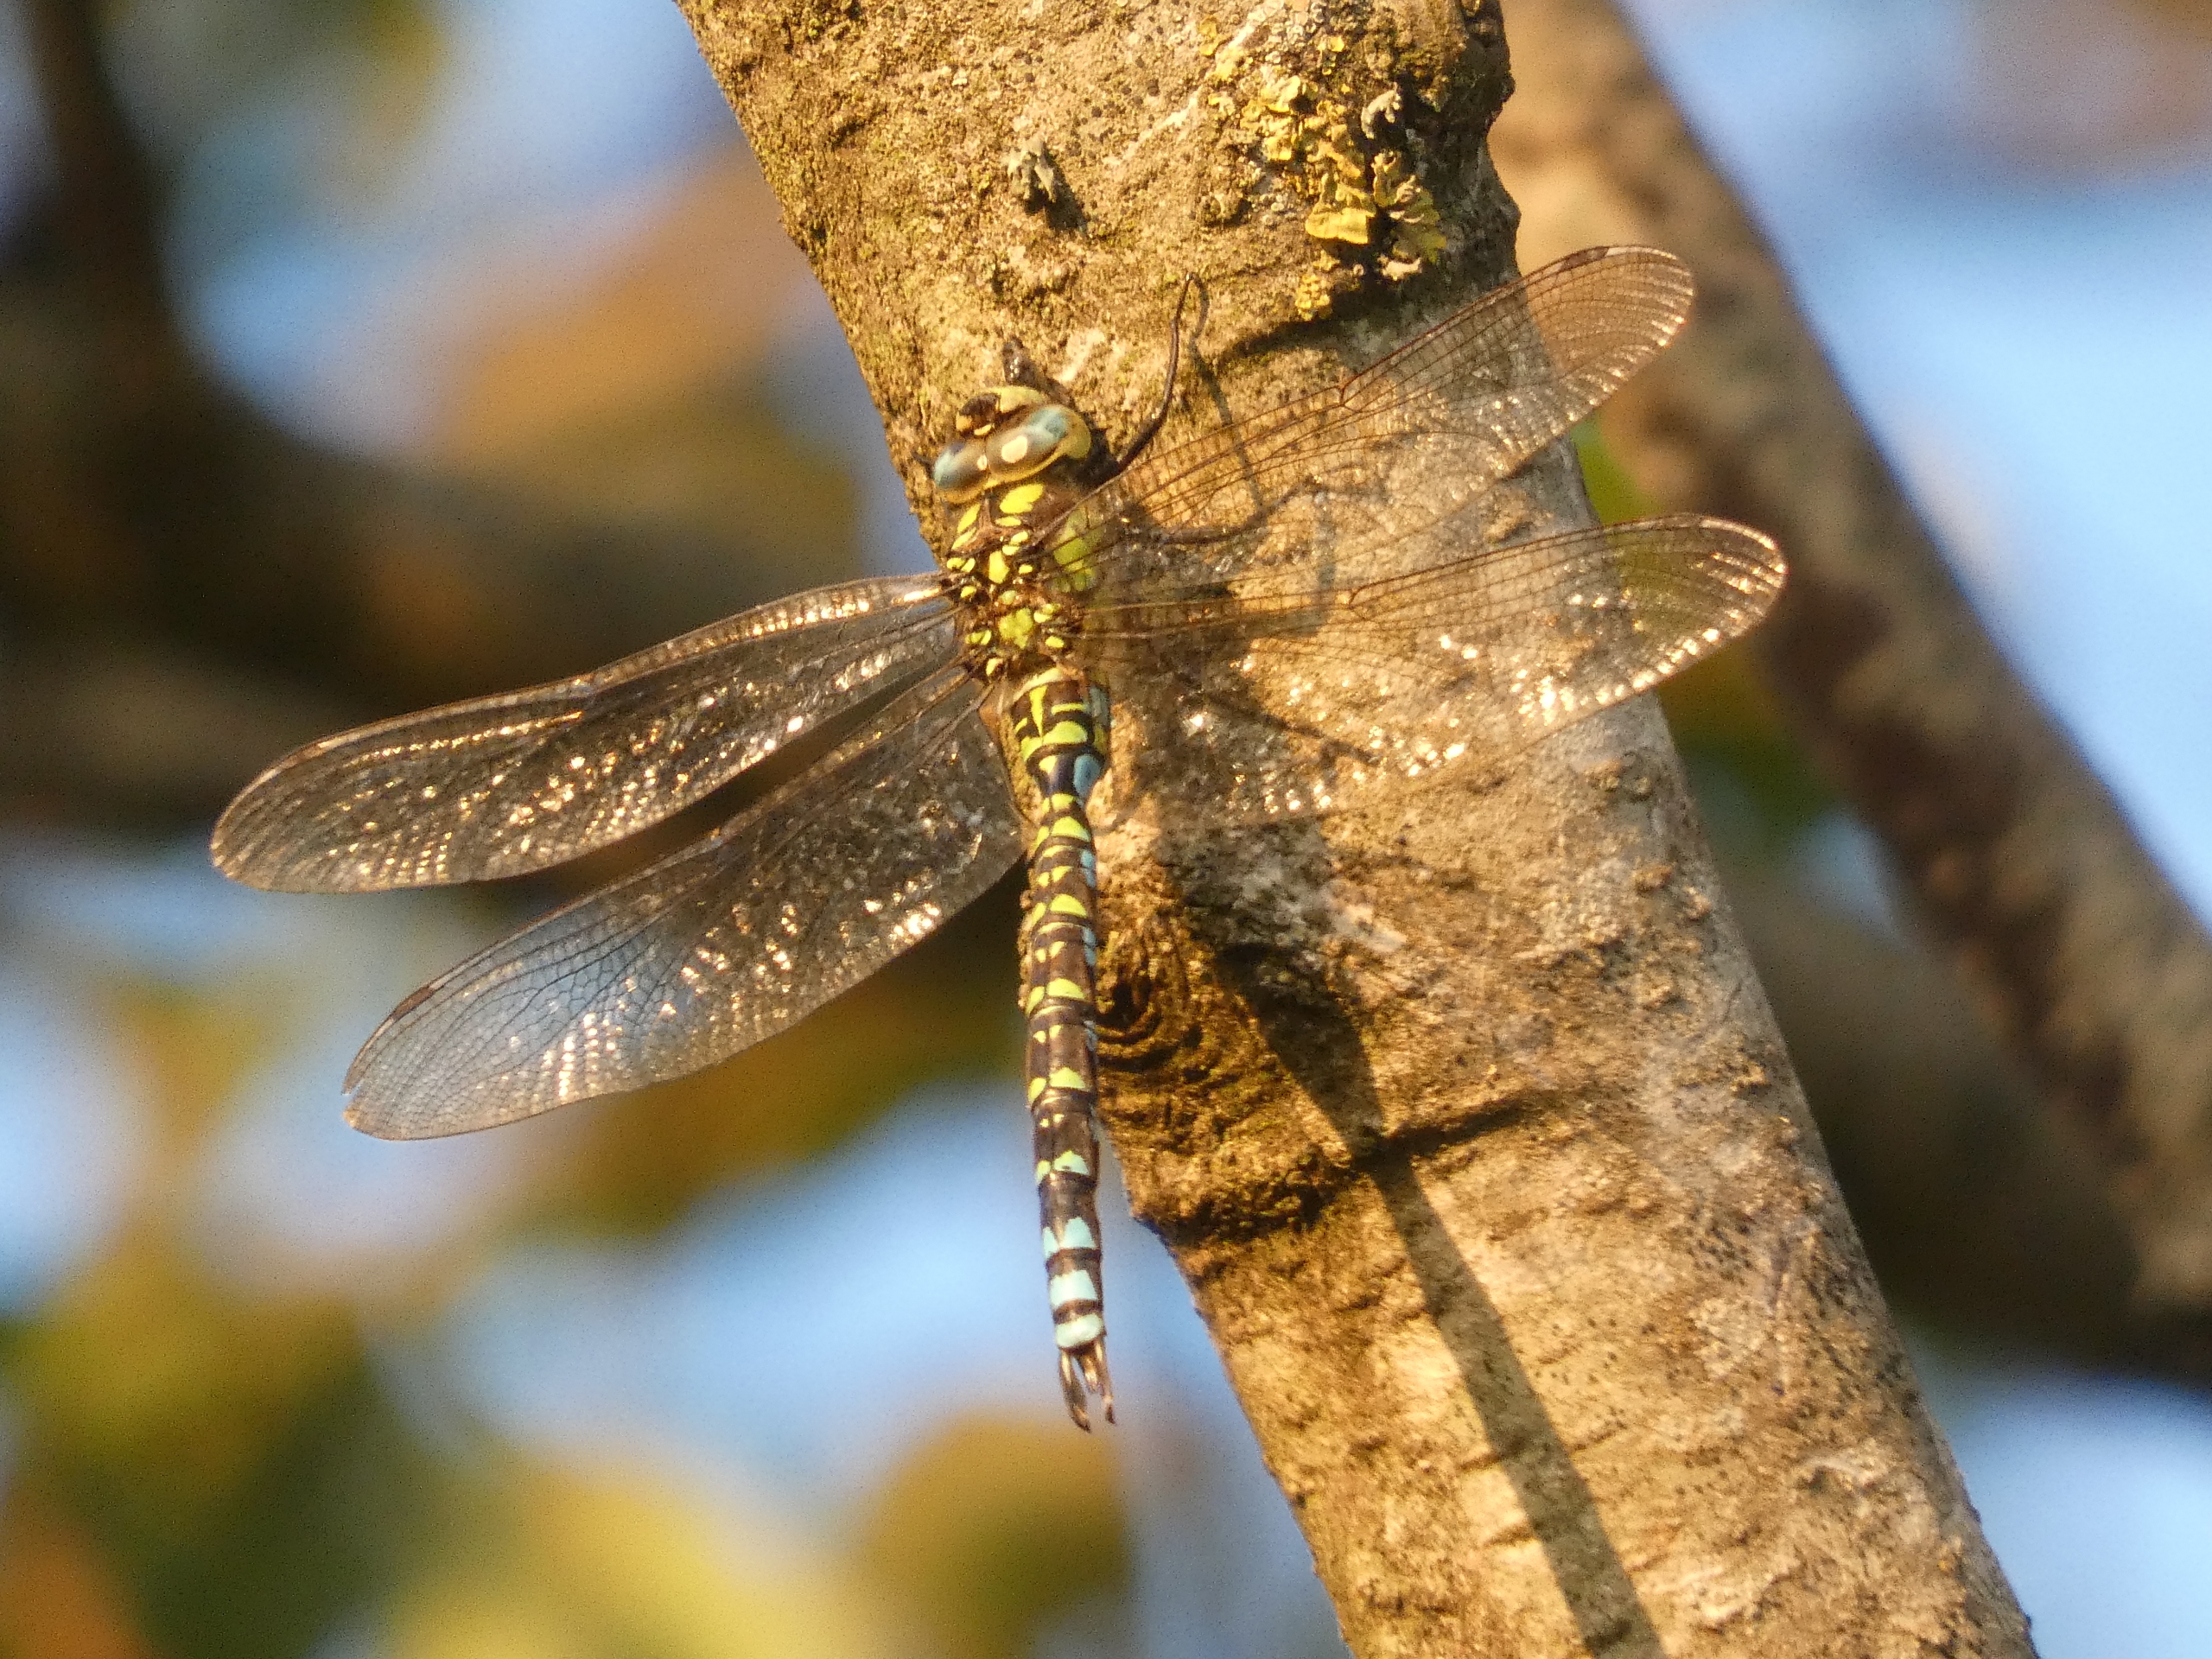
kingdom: Animalia
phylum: Arthropoda
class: Insecta
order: Odonata
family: Aeshnidae
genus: Aeshna
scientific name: Aeshna cyanea
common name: Blå mosaikguldsmed
